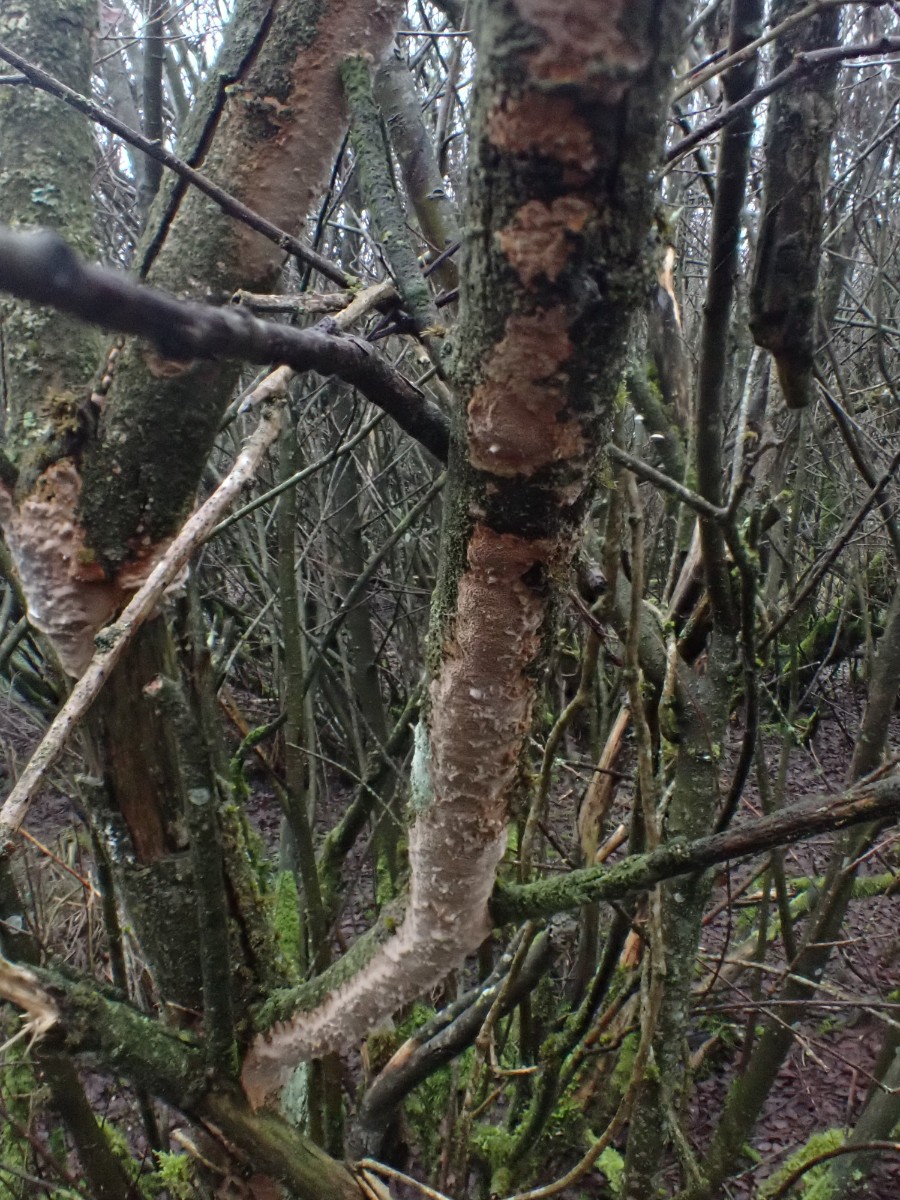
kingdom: Fungi
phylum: Basidiomycota
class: Agaricomycetes
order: Hymenochaetales
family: Hymenochaetaceae
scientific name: Hymenochaetaceae
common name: børstesvampfamilien
